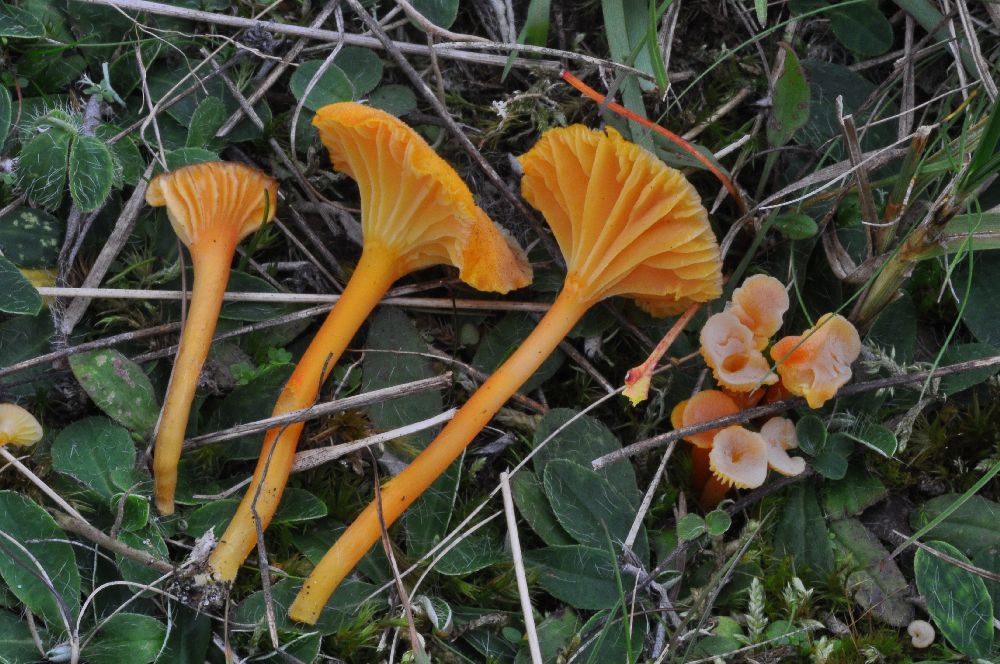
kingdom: Fungi
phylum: Basidiomycota
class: Agaricomycetes
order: Agaricales
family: Hygrophoraceae
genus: Hygrocybe
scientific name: Hygrocybe cantharellus
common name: kantarel-vokshat
